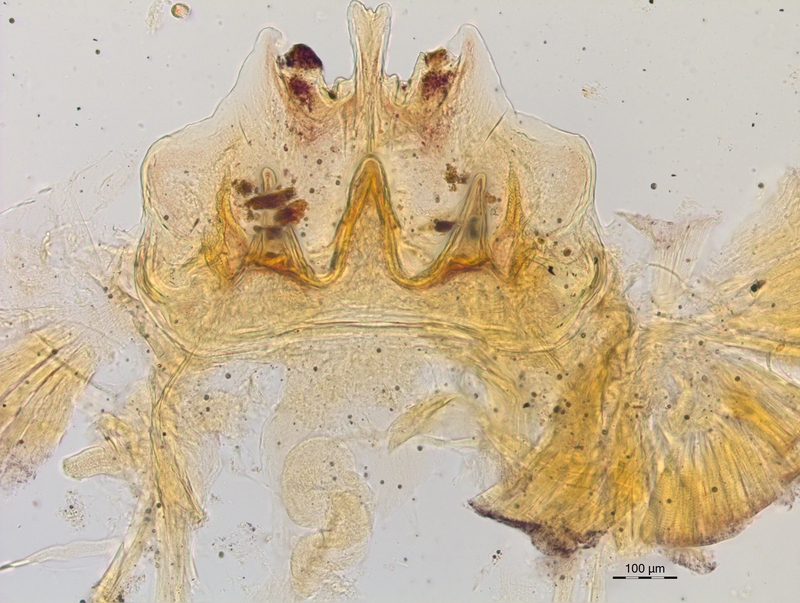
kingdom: Animalia
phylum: Arthropoda
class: Diplopoda
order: Chordeumatida
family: Craspedosomatidae
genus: Craspedosoma
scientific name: Craspedosoma rawlinsii
